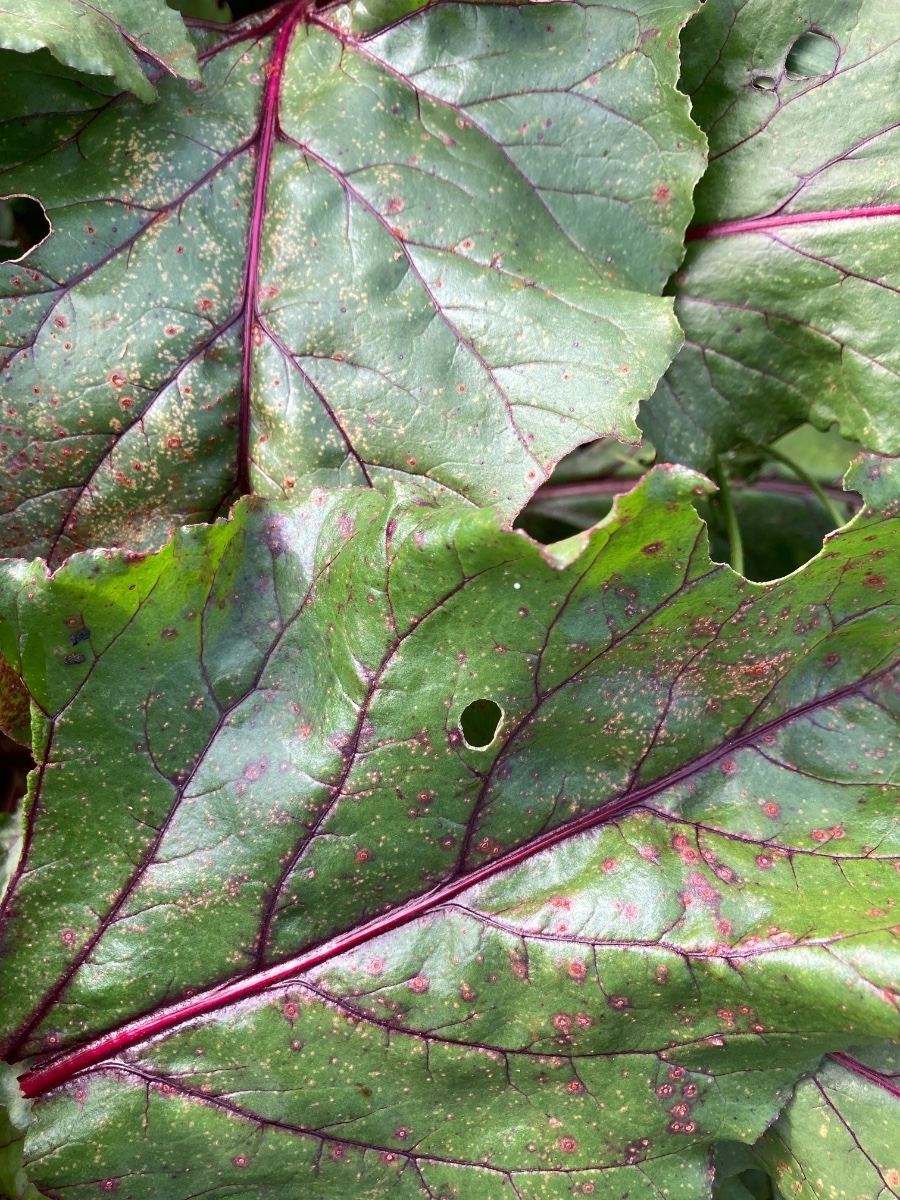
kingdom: Fungi
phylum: Basidiomycota
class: Pucciniomycetes
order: Pucciniales
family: Pucciniaceae
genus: Uromyces
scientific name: Uromyces betae
